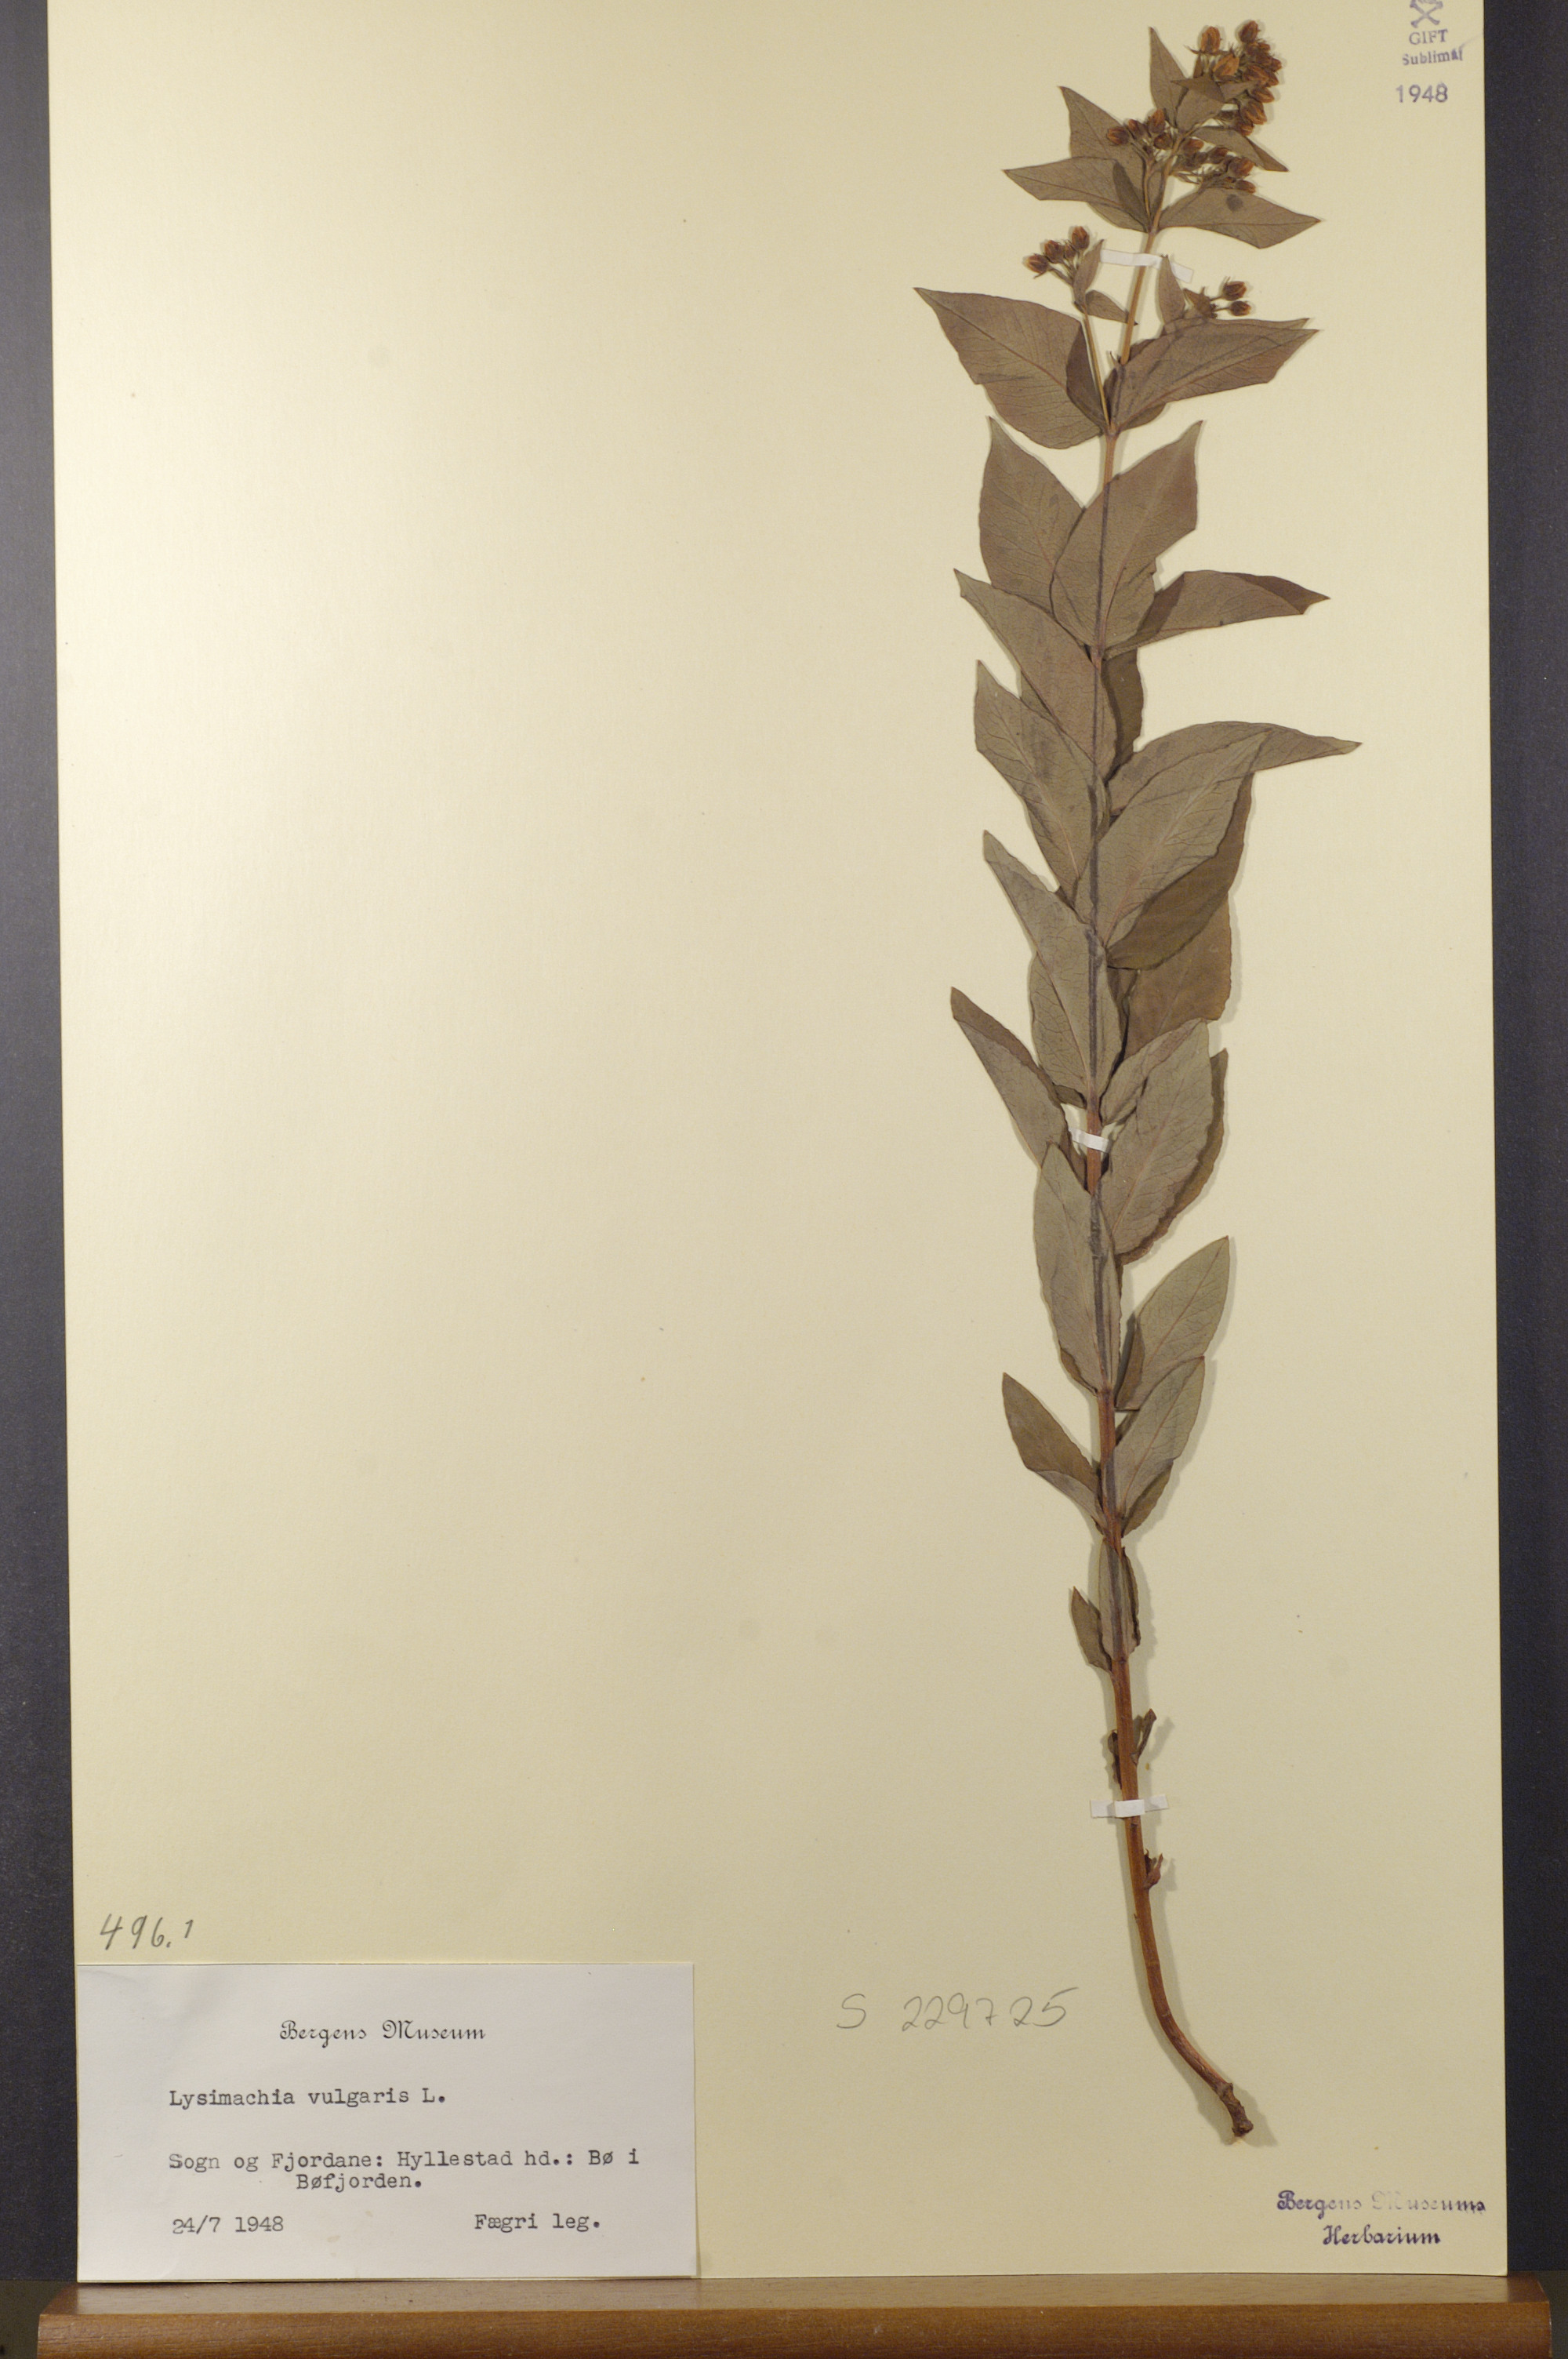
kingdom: Plantae
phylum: Tracheophyta
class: Magnoliopsida
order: Ericales
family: Primulaceae
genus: Lysimachia
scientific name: Lysimachia vulgaris
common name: Yellow loosestrife
